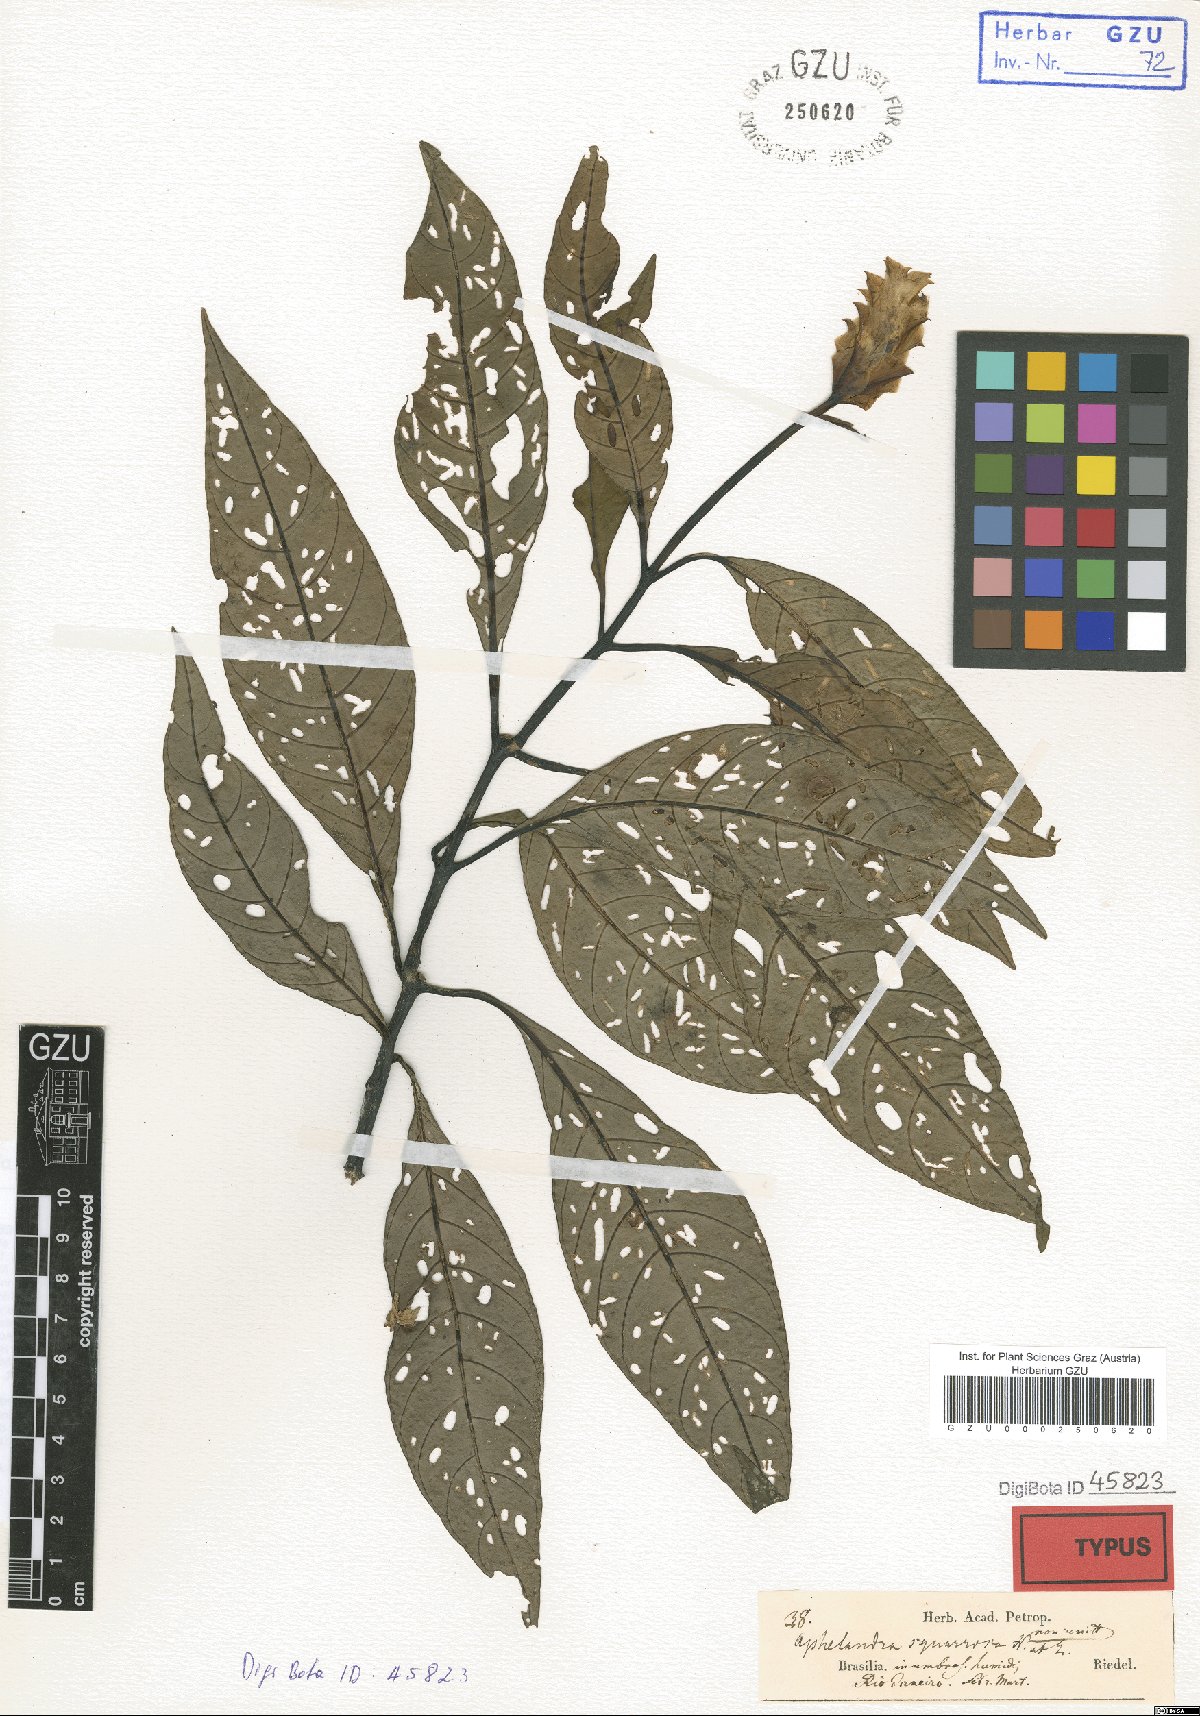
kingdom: Plantae
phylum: Tracheophyta
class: Magnoliopsida
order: Lamiales
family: Acanthaceae
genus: Aphelandra
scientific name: Aphelandra squarrosa
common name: Saffron spike
